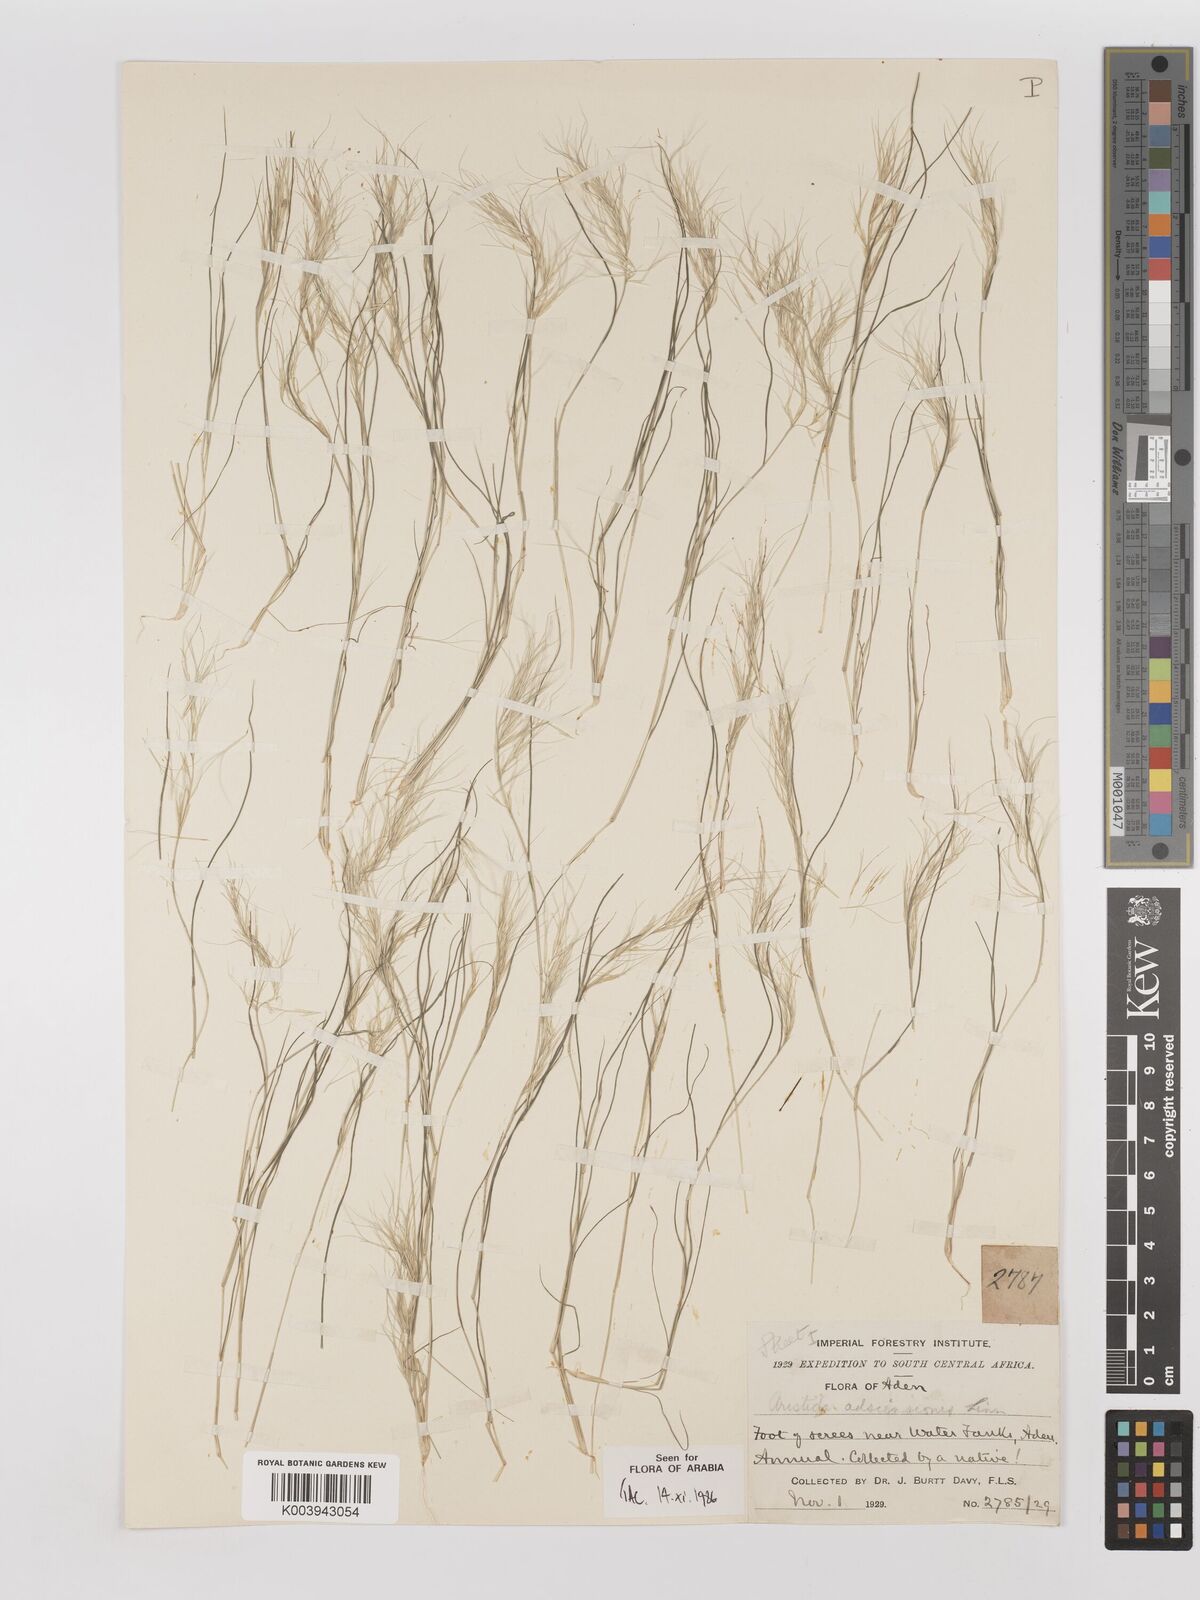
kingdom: Plantae
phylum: Tracheophyta
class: Liliopsida
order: Poales
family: Poaceae
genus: Aristida
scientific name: Aristida adscensionis
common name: Sixweeks threeawn
